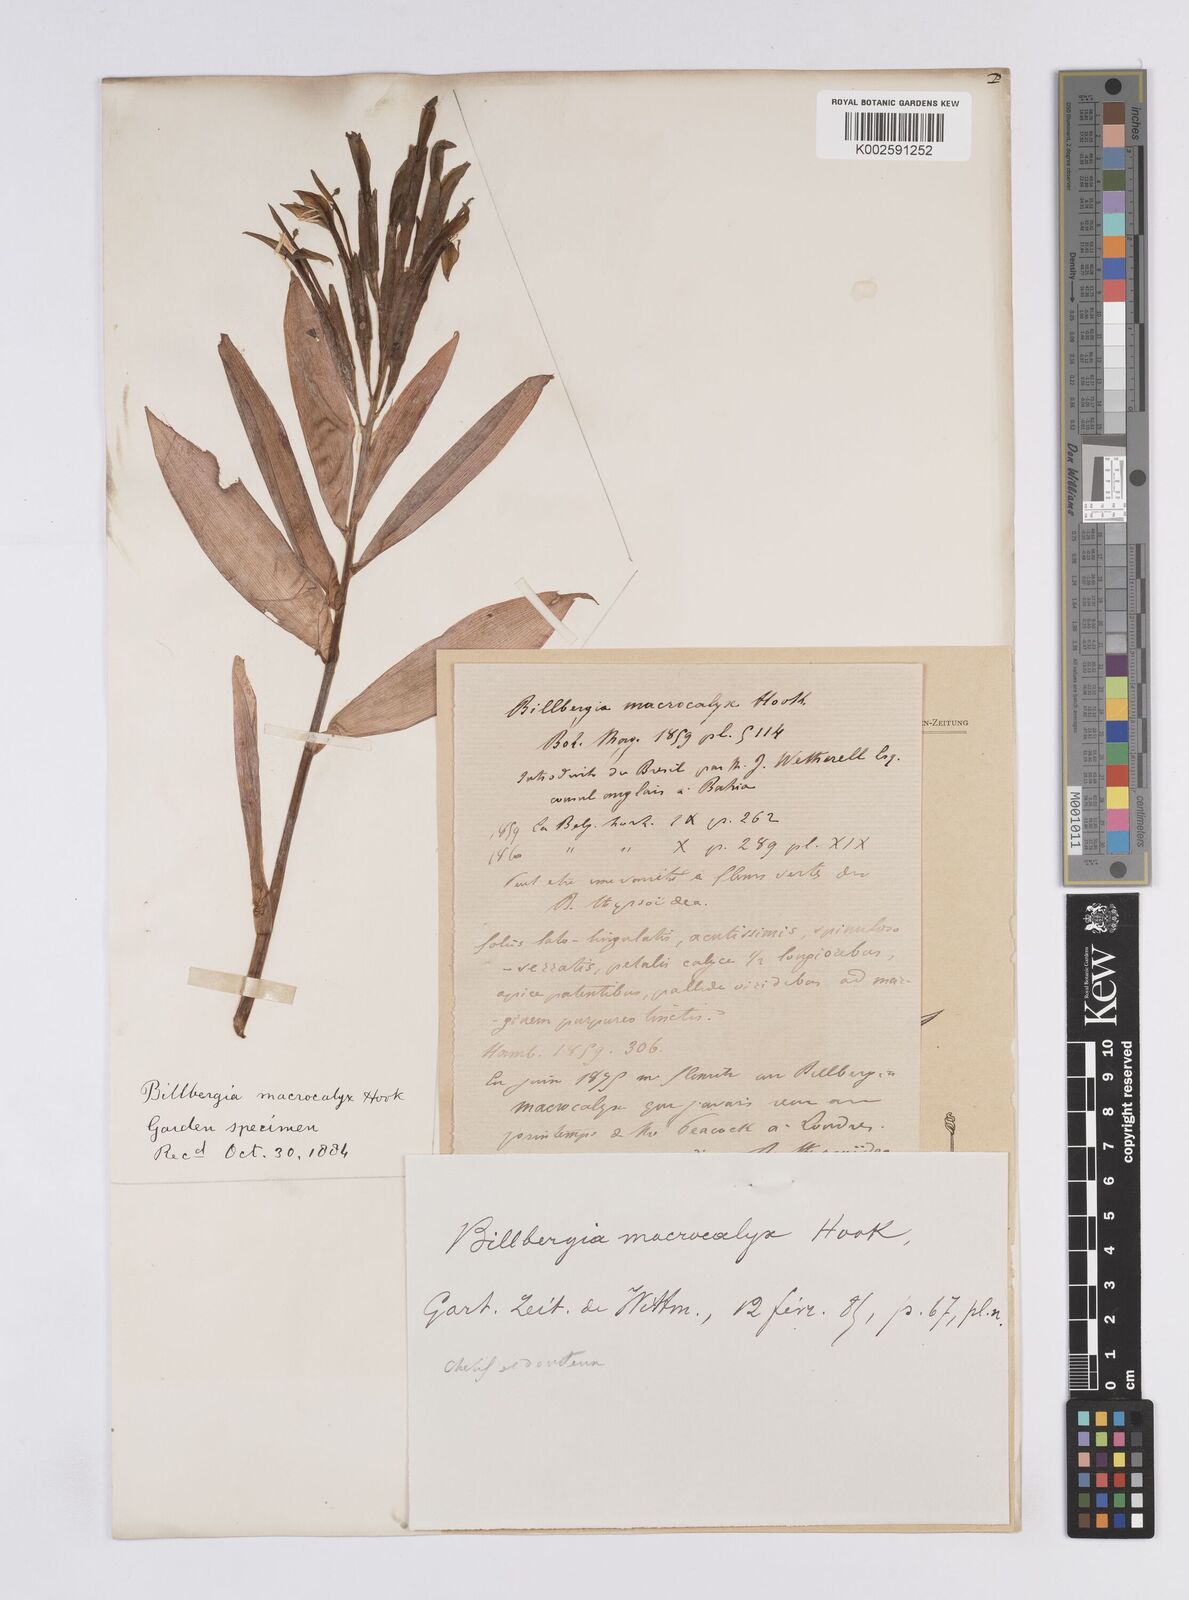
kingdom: Plantae
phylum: Tracheophyta
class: Liliopsida
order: Poales
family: Bromeliaceae
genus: Billbergia
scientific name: Billbergia macrocalyx
